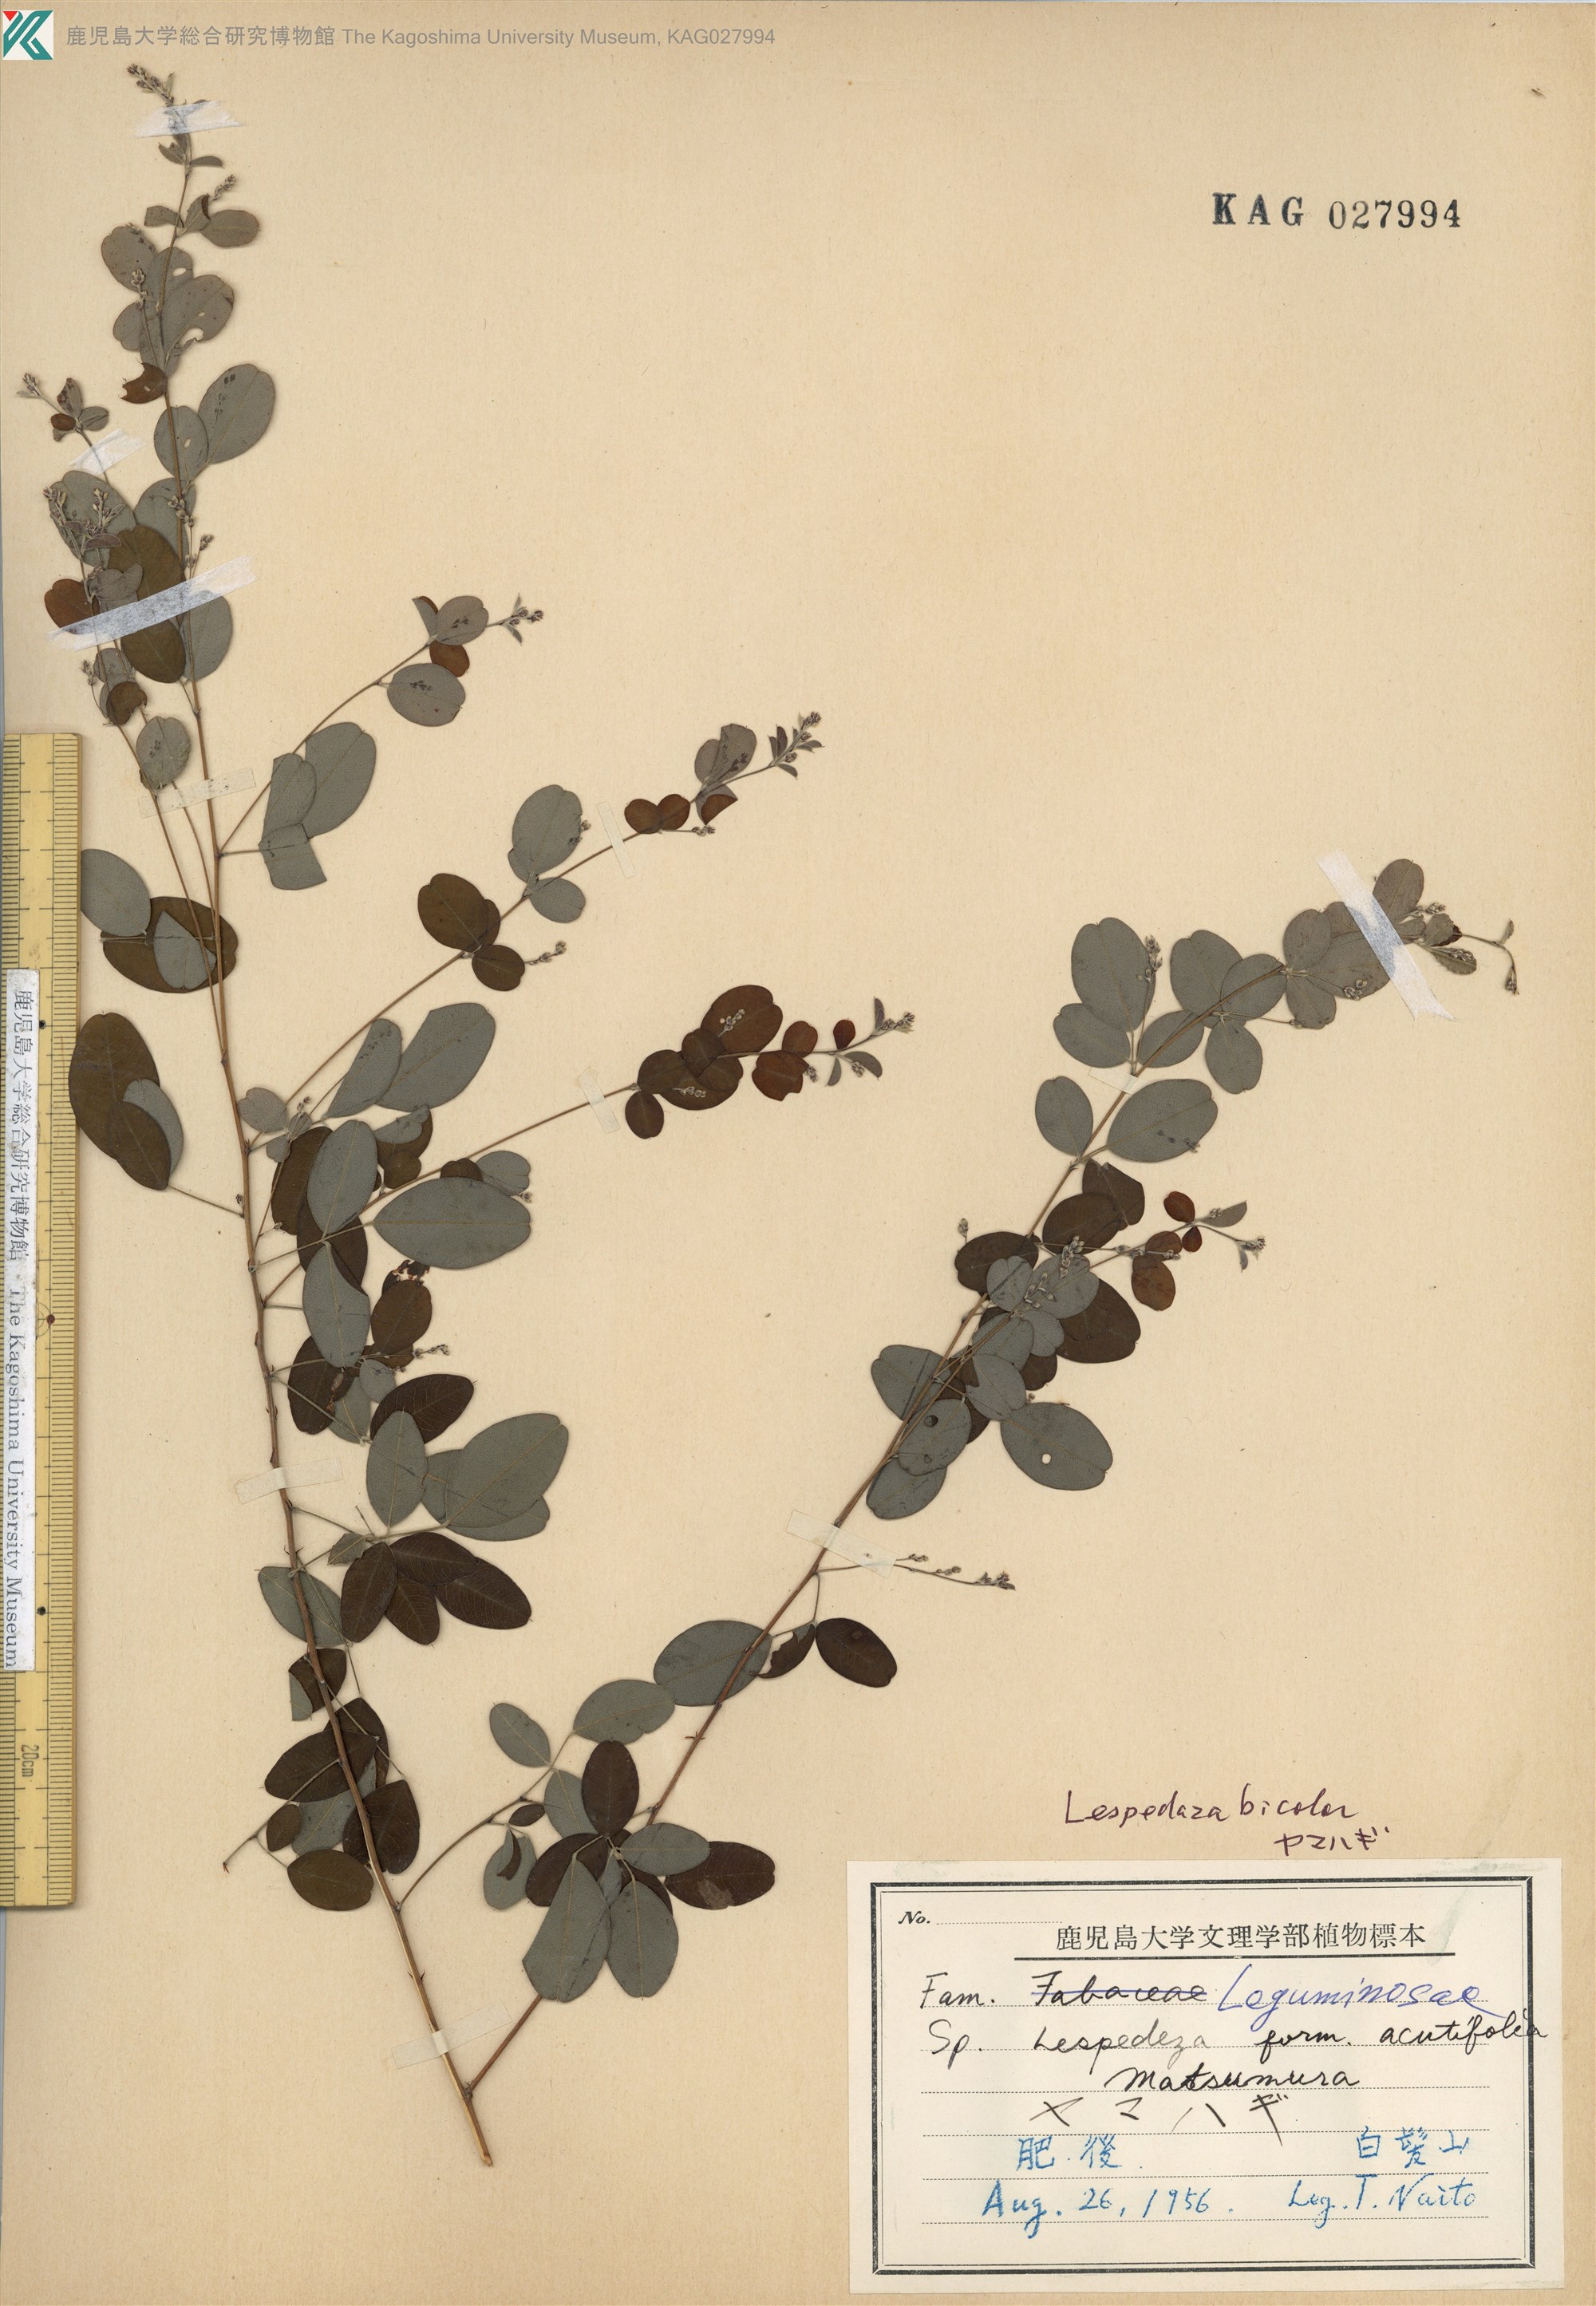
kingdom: Plantae
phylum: Tracheophyta
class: Magnoliopsida
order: Fabales
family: Fabaceae
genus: Lespedeza
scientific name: Lespedeza bicolor
